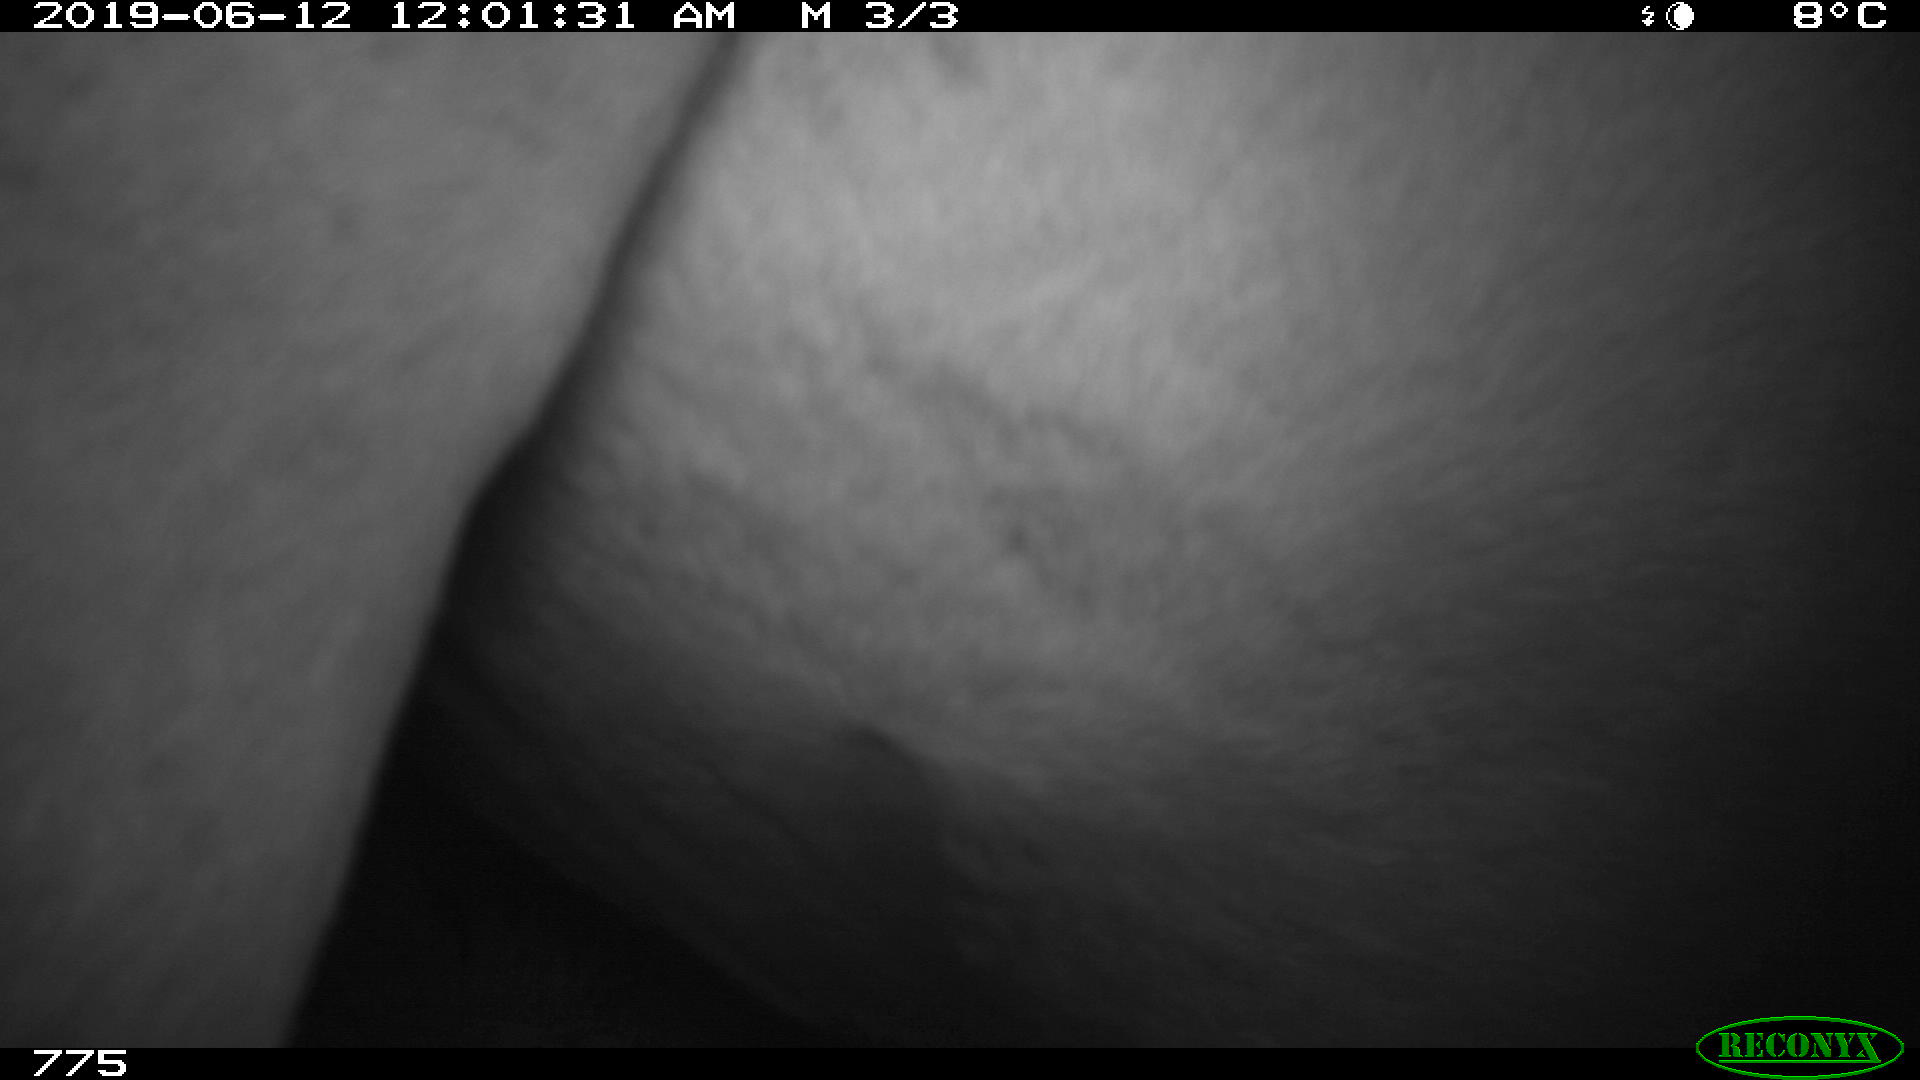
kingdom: Animalia
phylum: Chordata
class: Mammalia
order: Perissodactyla
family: Equidae
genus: Equus
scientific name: Equus caballus
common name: Horse
